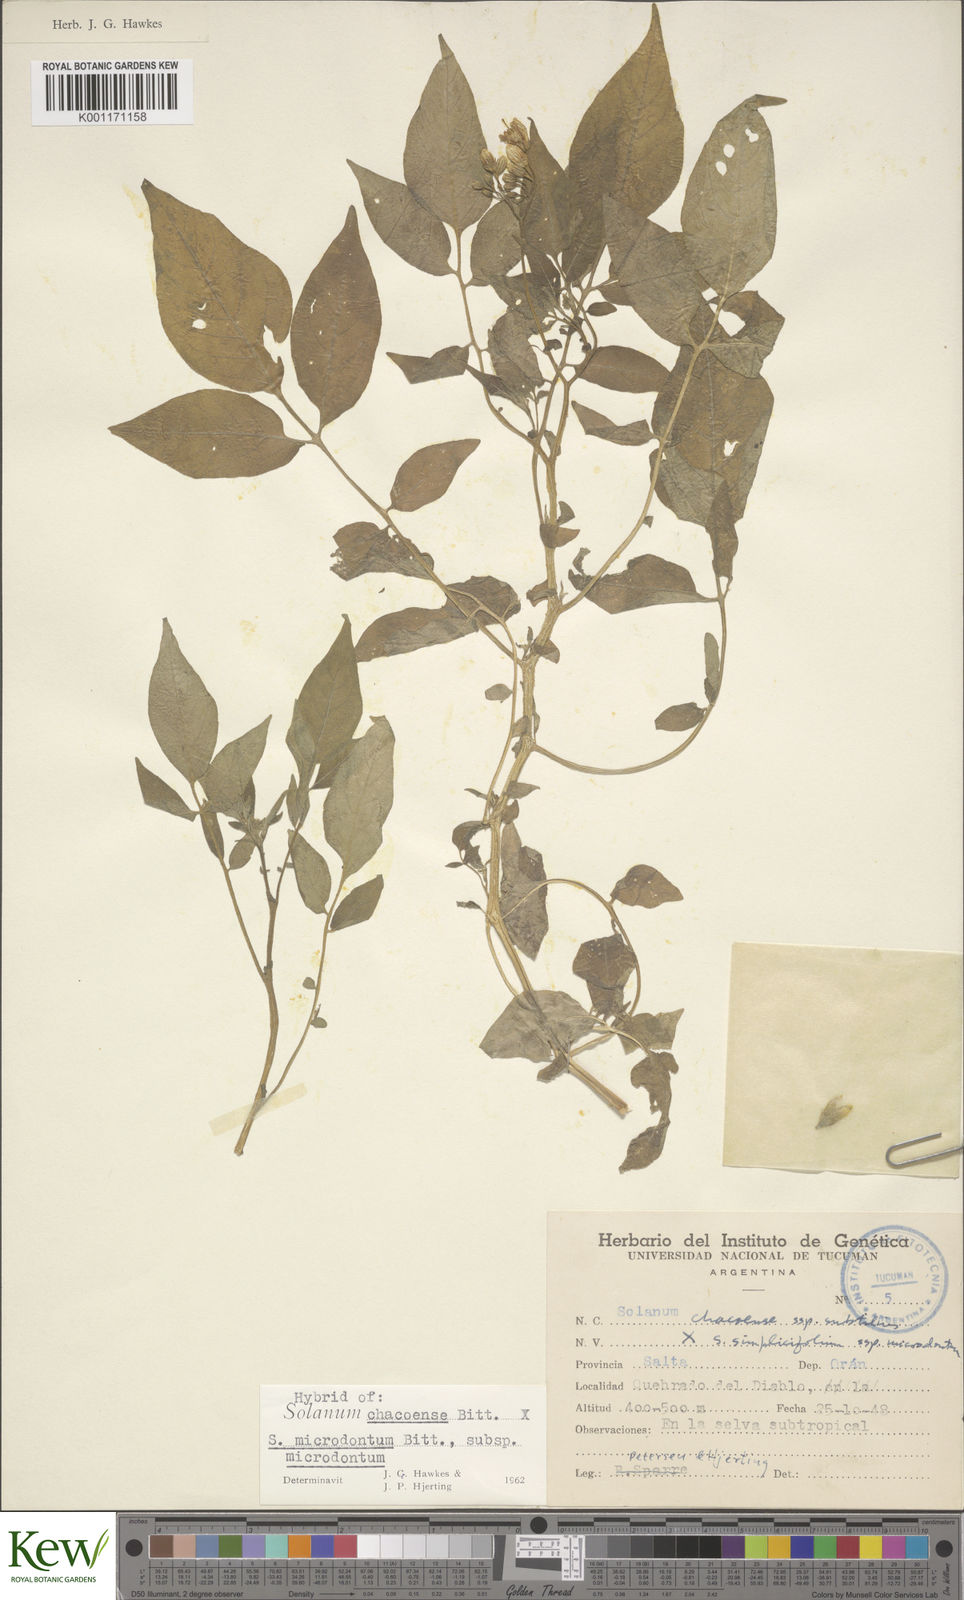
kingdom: Plantae
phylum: Tracheophyta
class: Magnoliopsida
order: Solanales
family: Solanaceae
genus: Solanum
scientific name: Solanum microdontum
